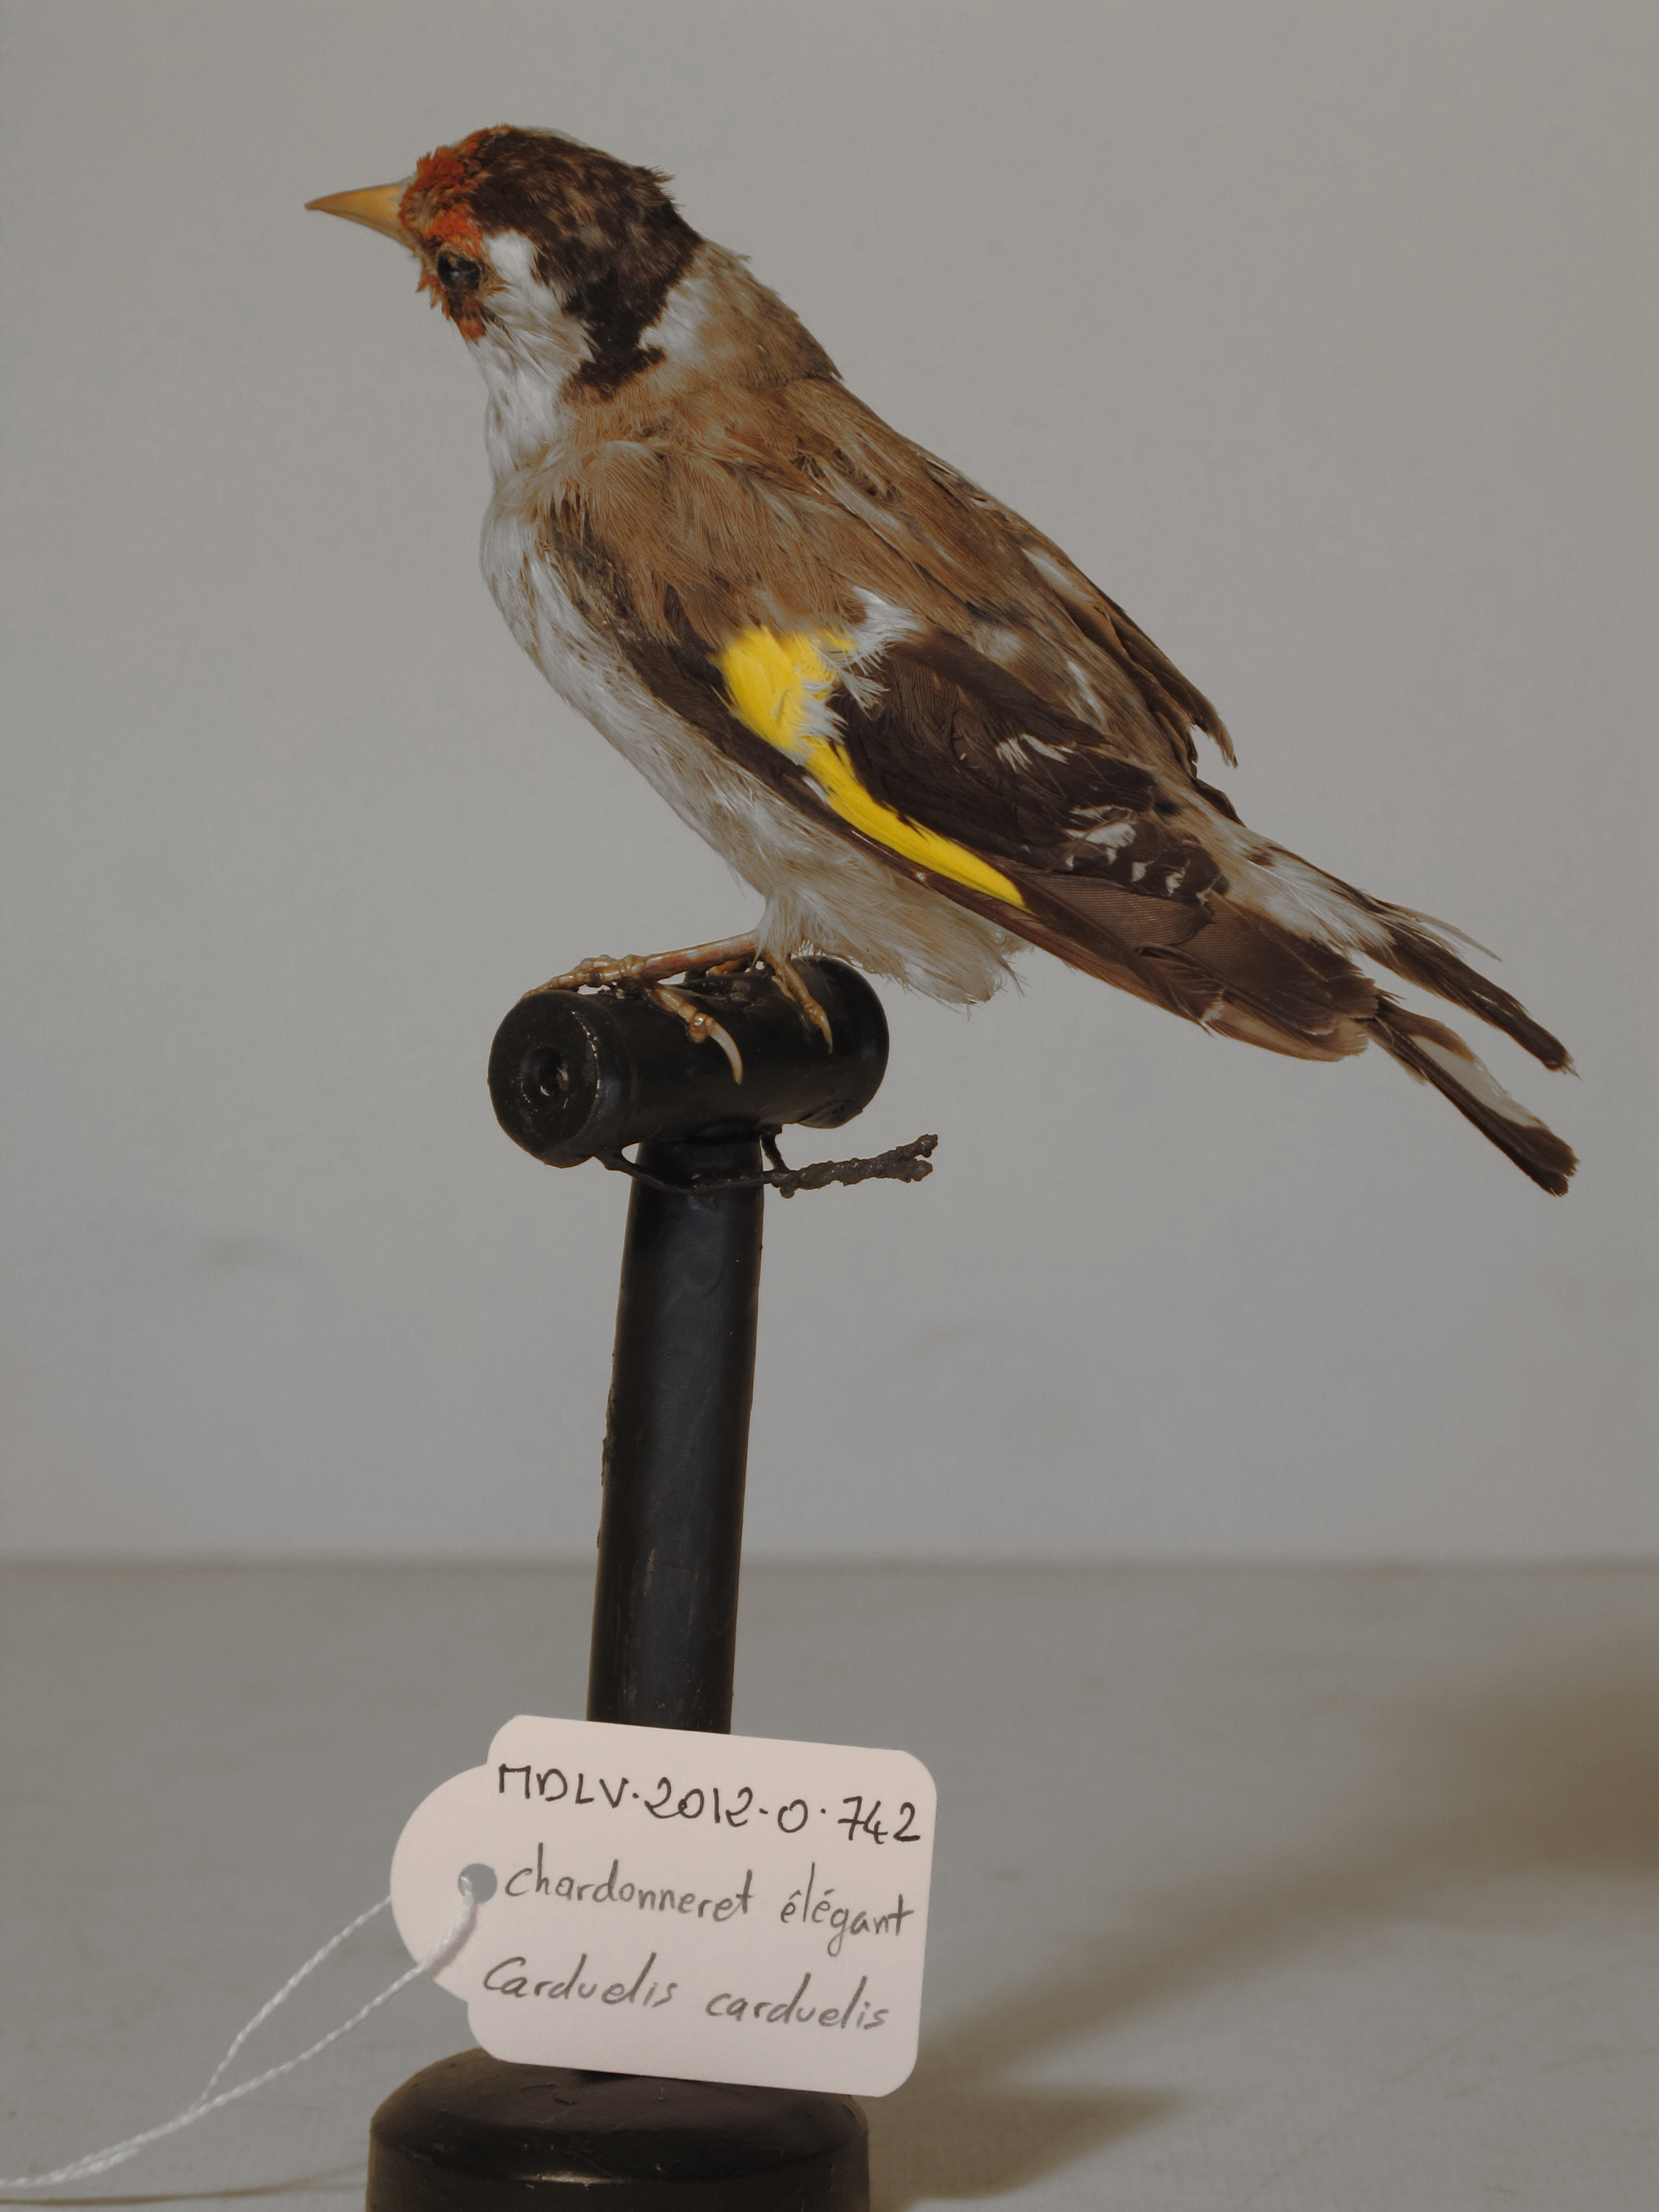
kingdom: Animalia
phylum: Chordata
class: Aves
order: Passeriformes
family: Fringillidae
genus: Carduelis
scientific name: Carduelis carduelis
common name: European Goldfinch
